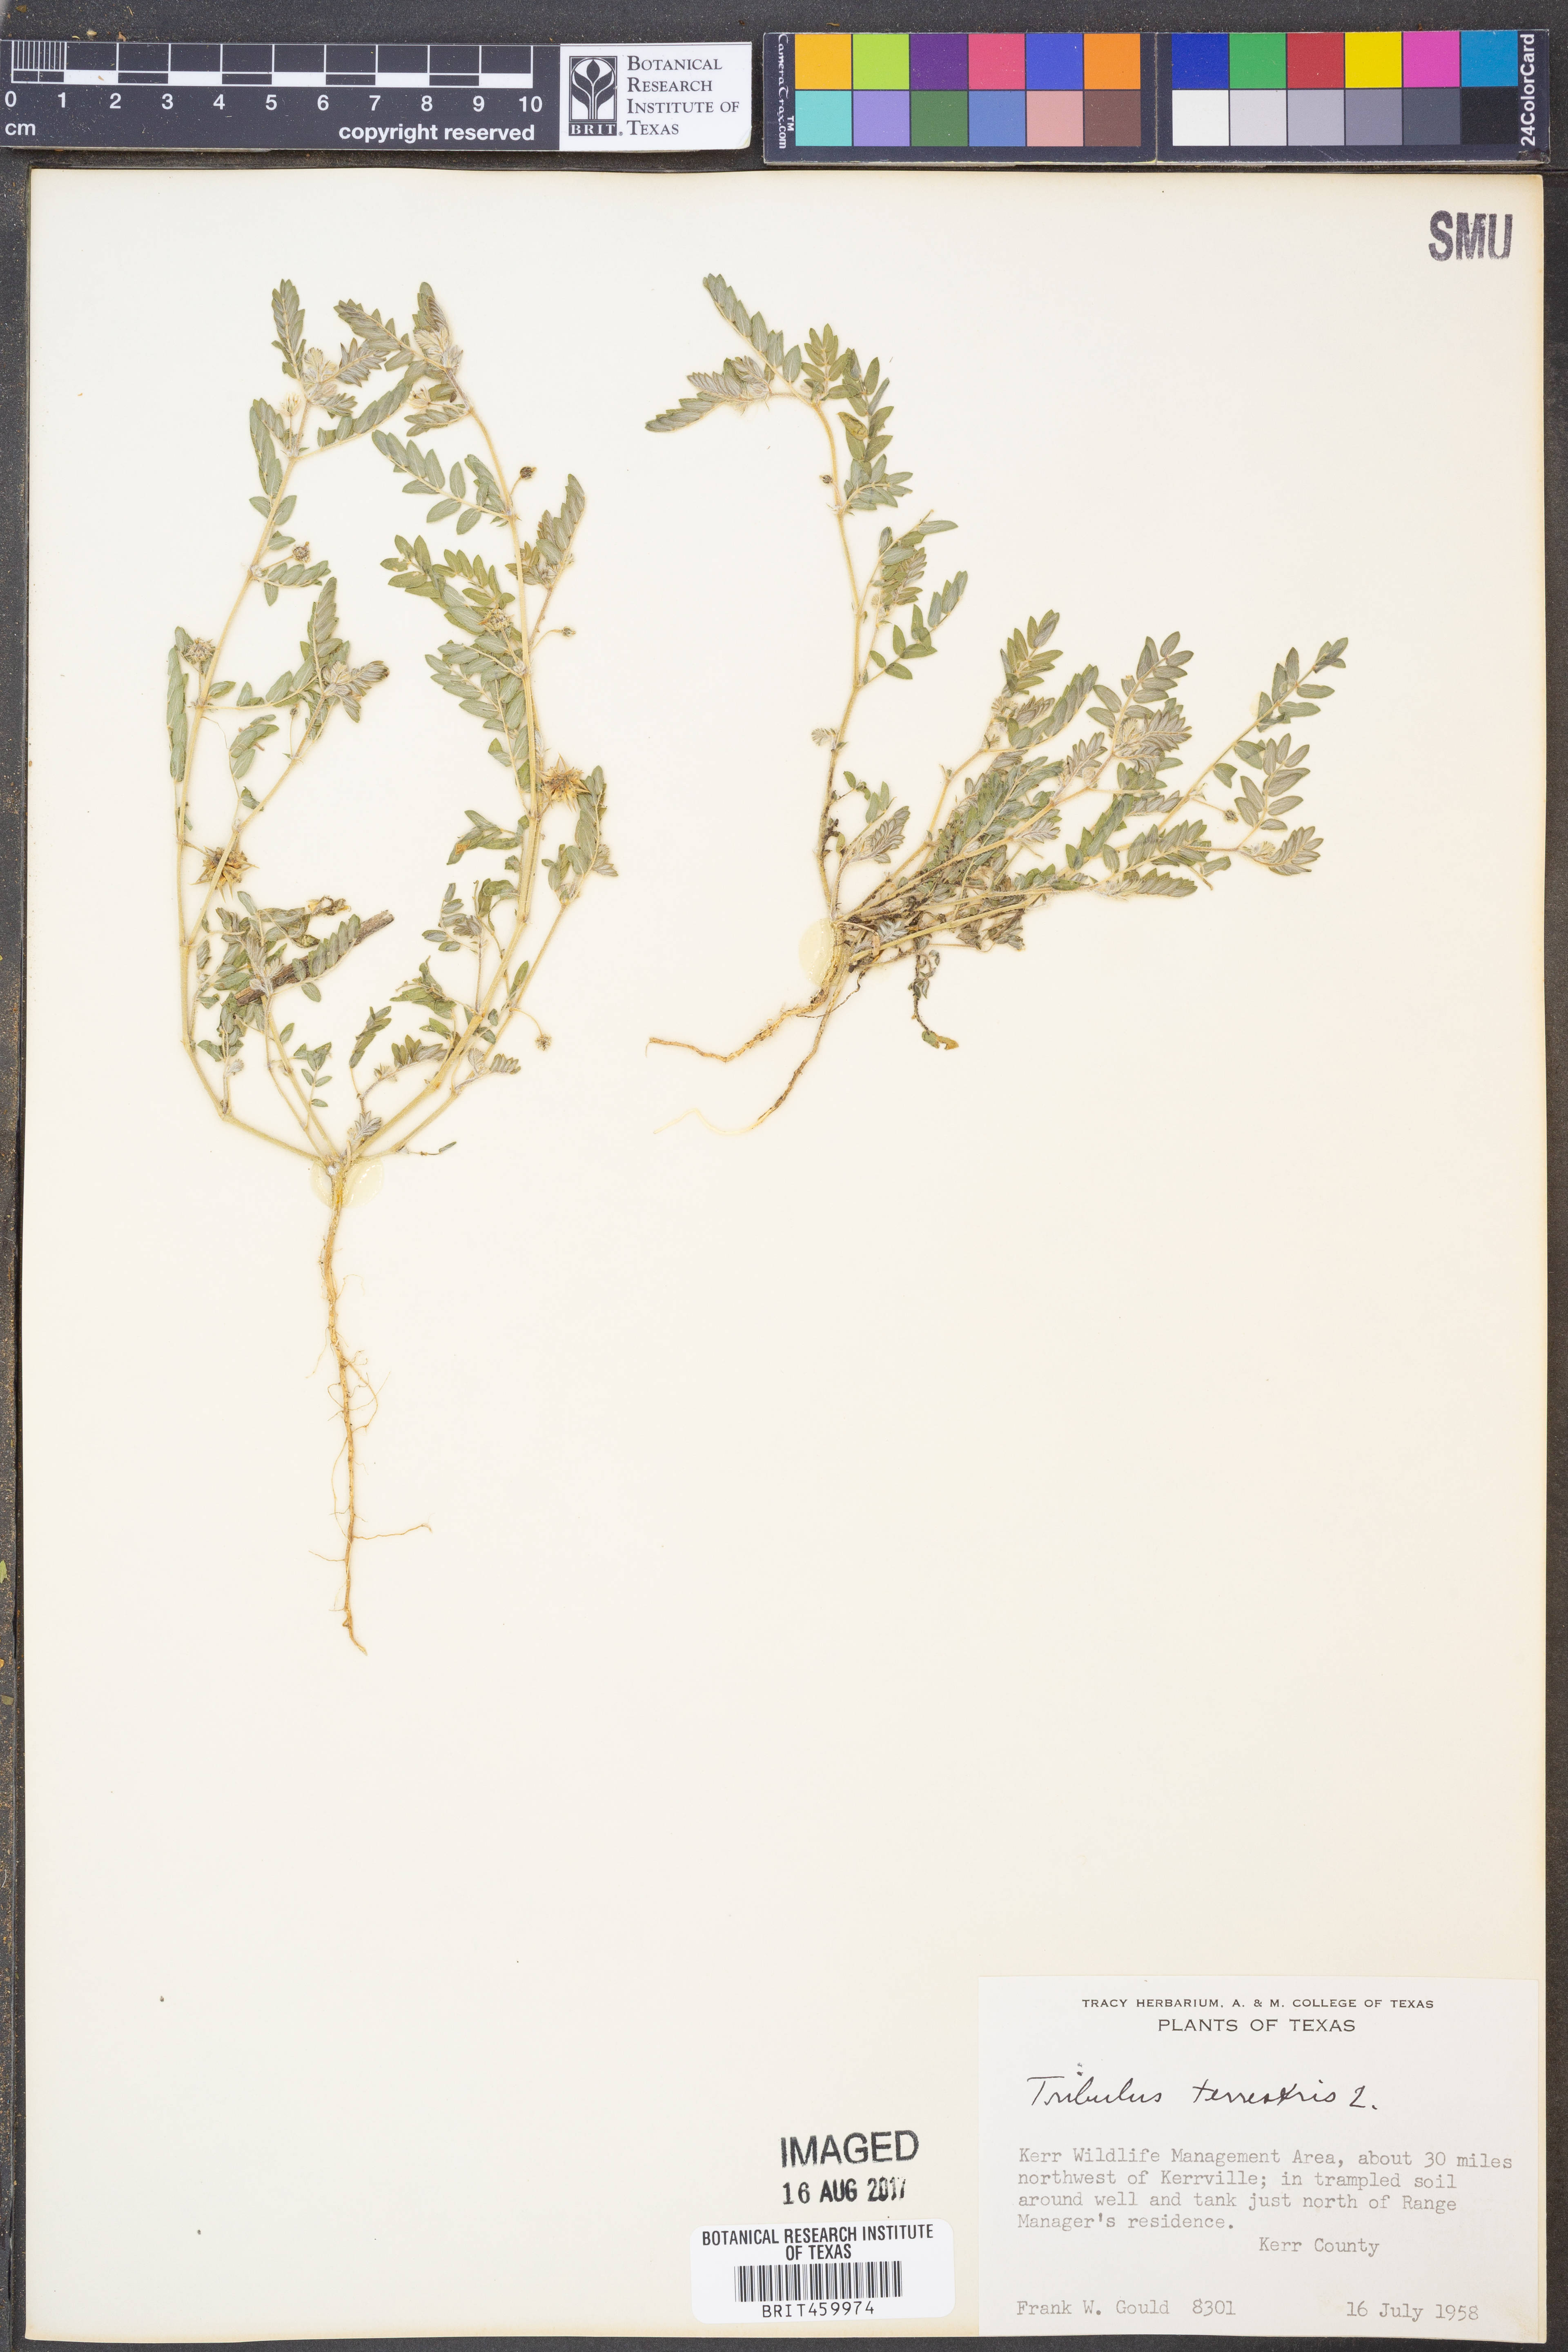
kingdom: Plantae
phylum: Tracheophyta
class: Magnoliopsida
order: Zygophyllales
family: Zygophyllaceae
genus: Tribulus
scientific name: Tribulus terrestris
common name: Puncturevine
